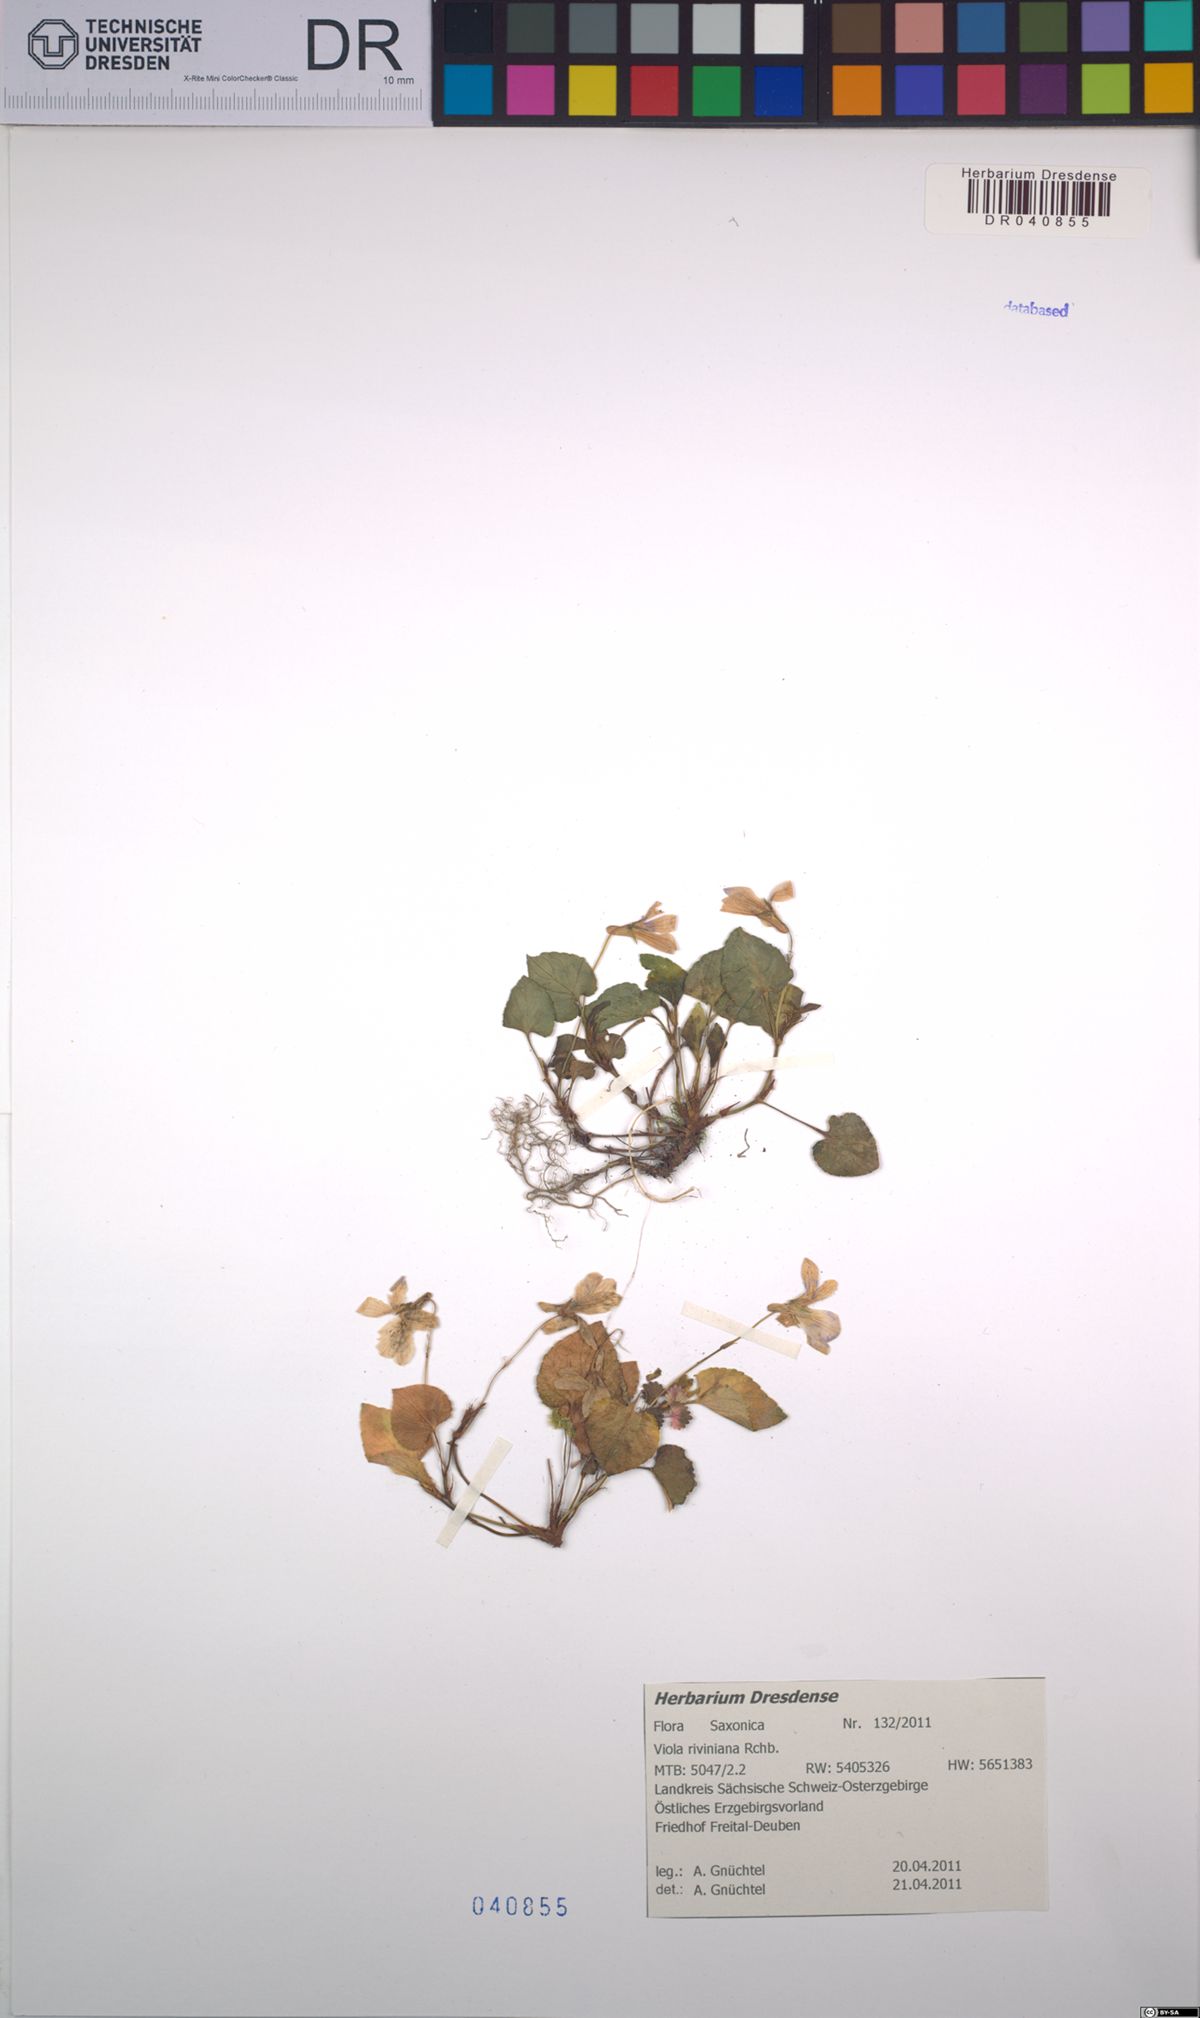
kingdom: Plantae
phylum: Tracheophyta
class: Magnoliopsida
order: Malpighiales
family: Violaceae
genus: Viola
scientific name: Viola riviniana
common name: Common dog-violet
